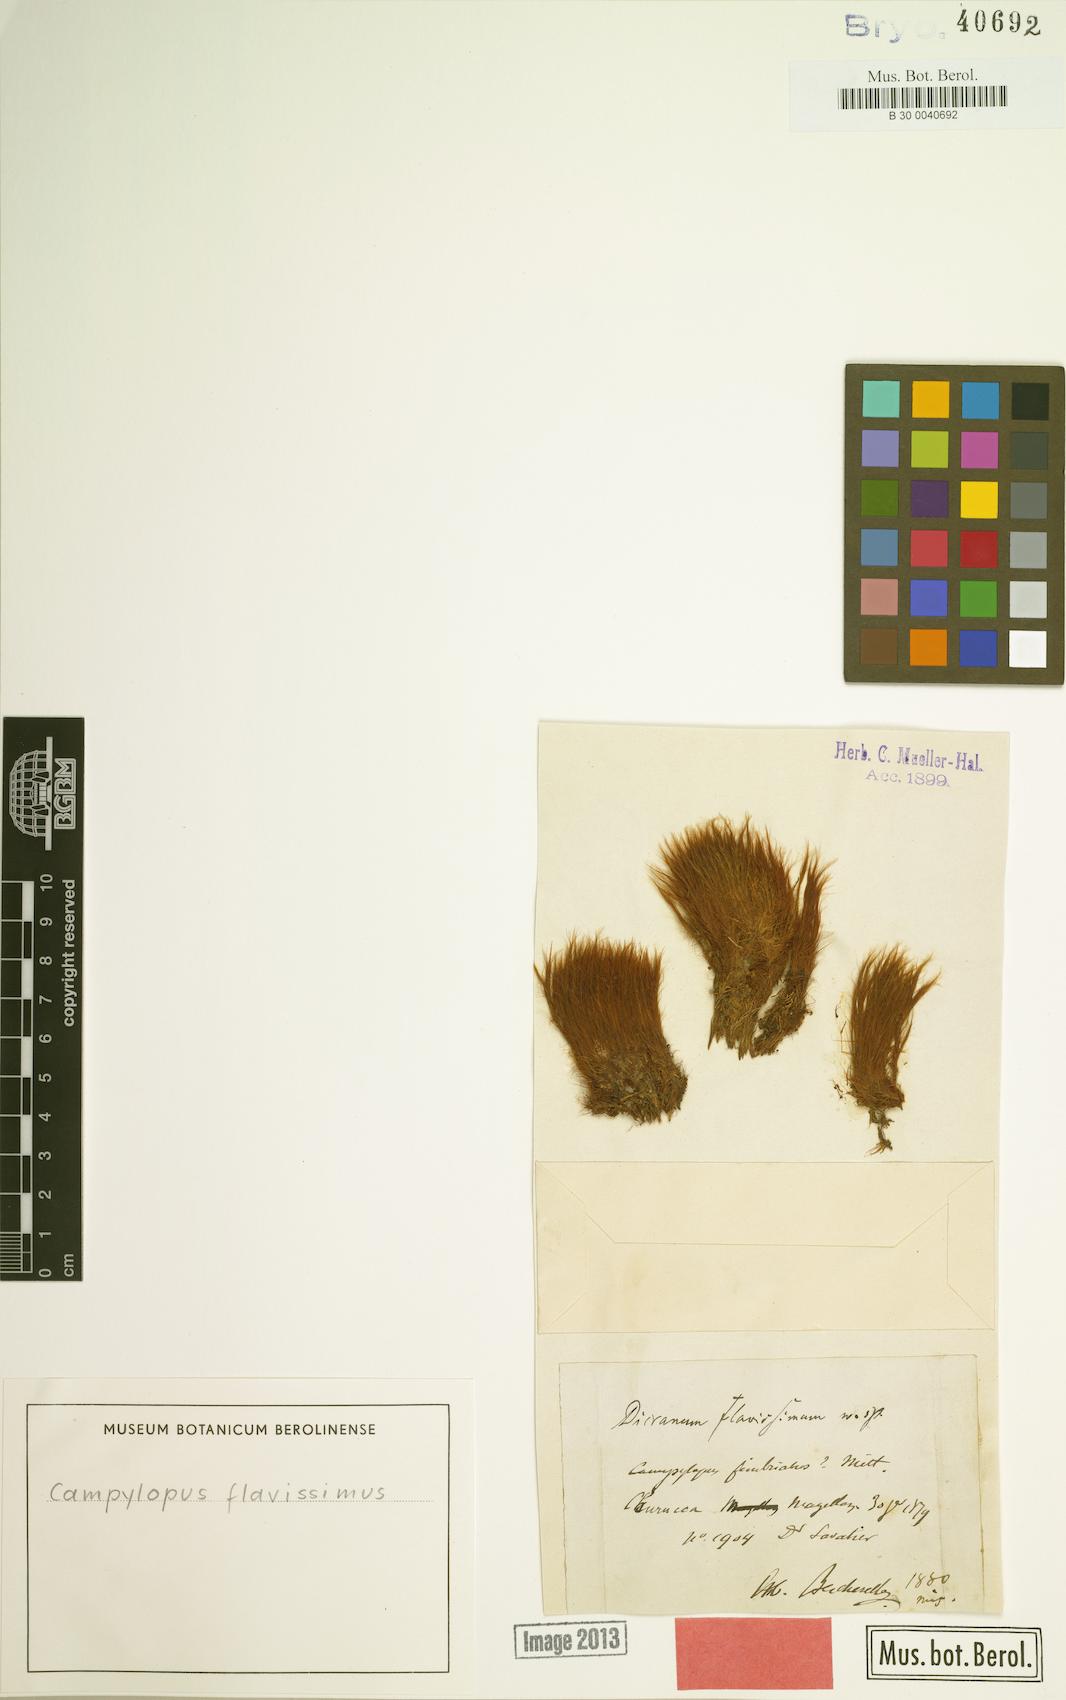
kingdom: Plantae
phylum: Bryophyta
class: Bryopsida
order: Dicranales
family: Dicranaceae
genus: Chorisodontium
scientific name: Chorisodontium aciphyllum
